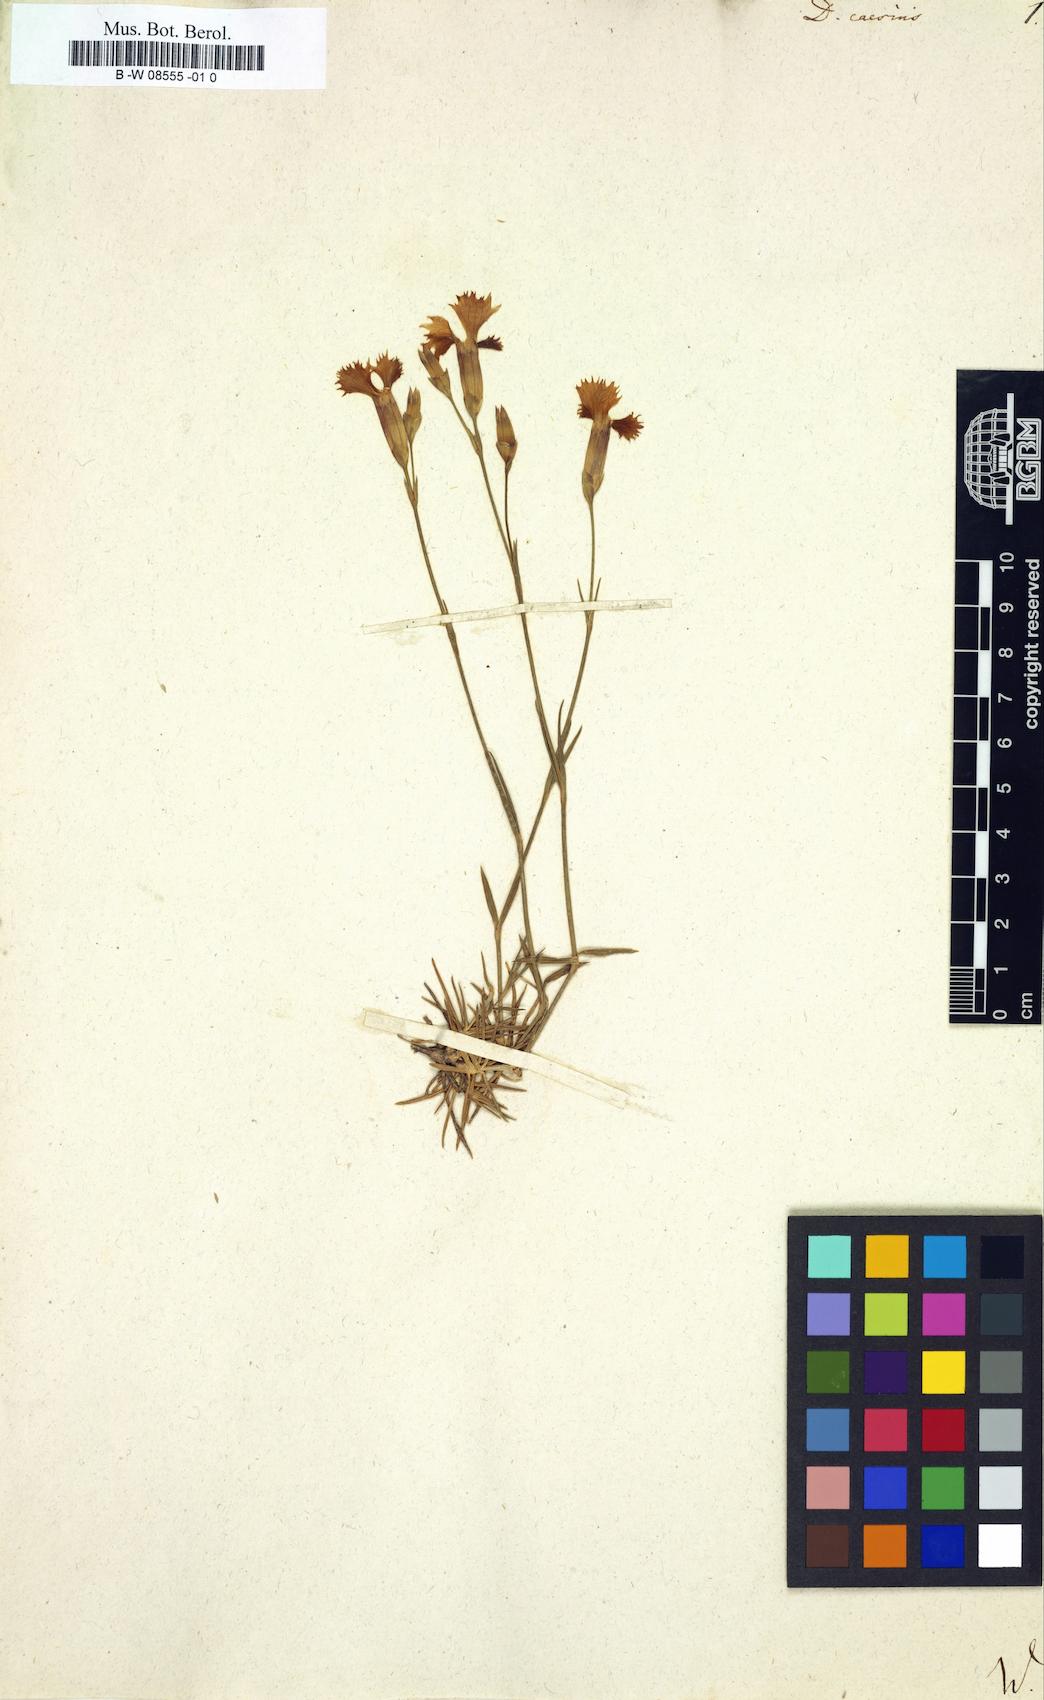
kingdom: Plantae
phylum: Tracheophyta
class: Magnoliopsida
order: Caryophyllales
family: Caryophyllaceae
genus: Dianthus
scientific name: Dianthus caesius
